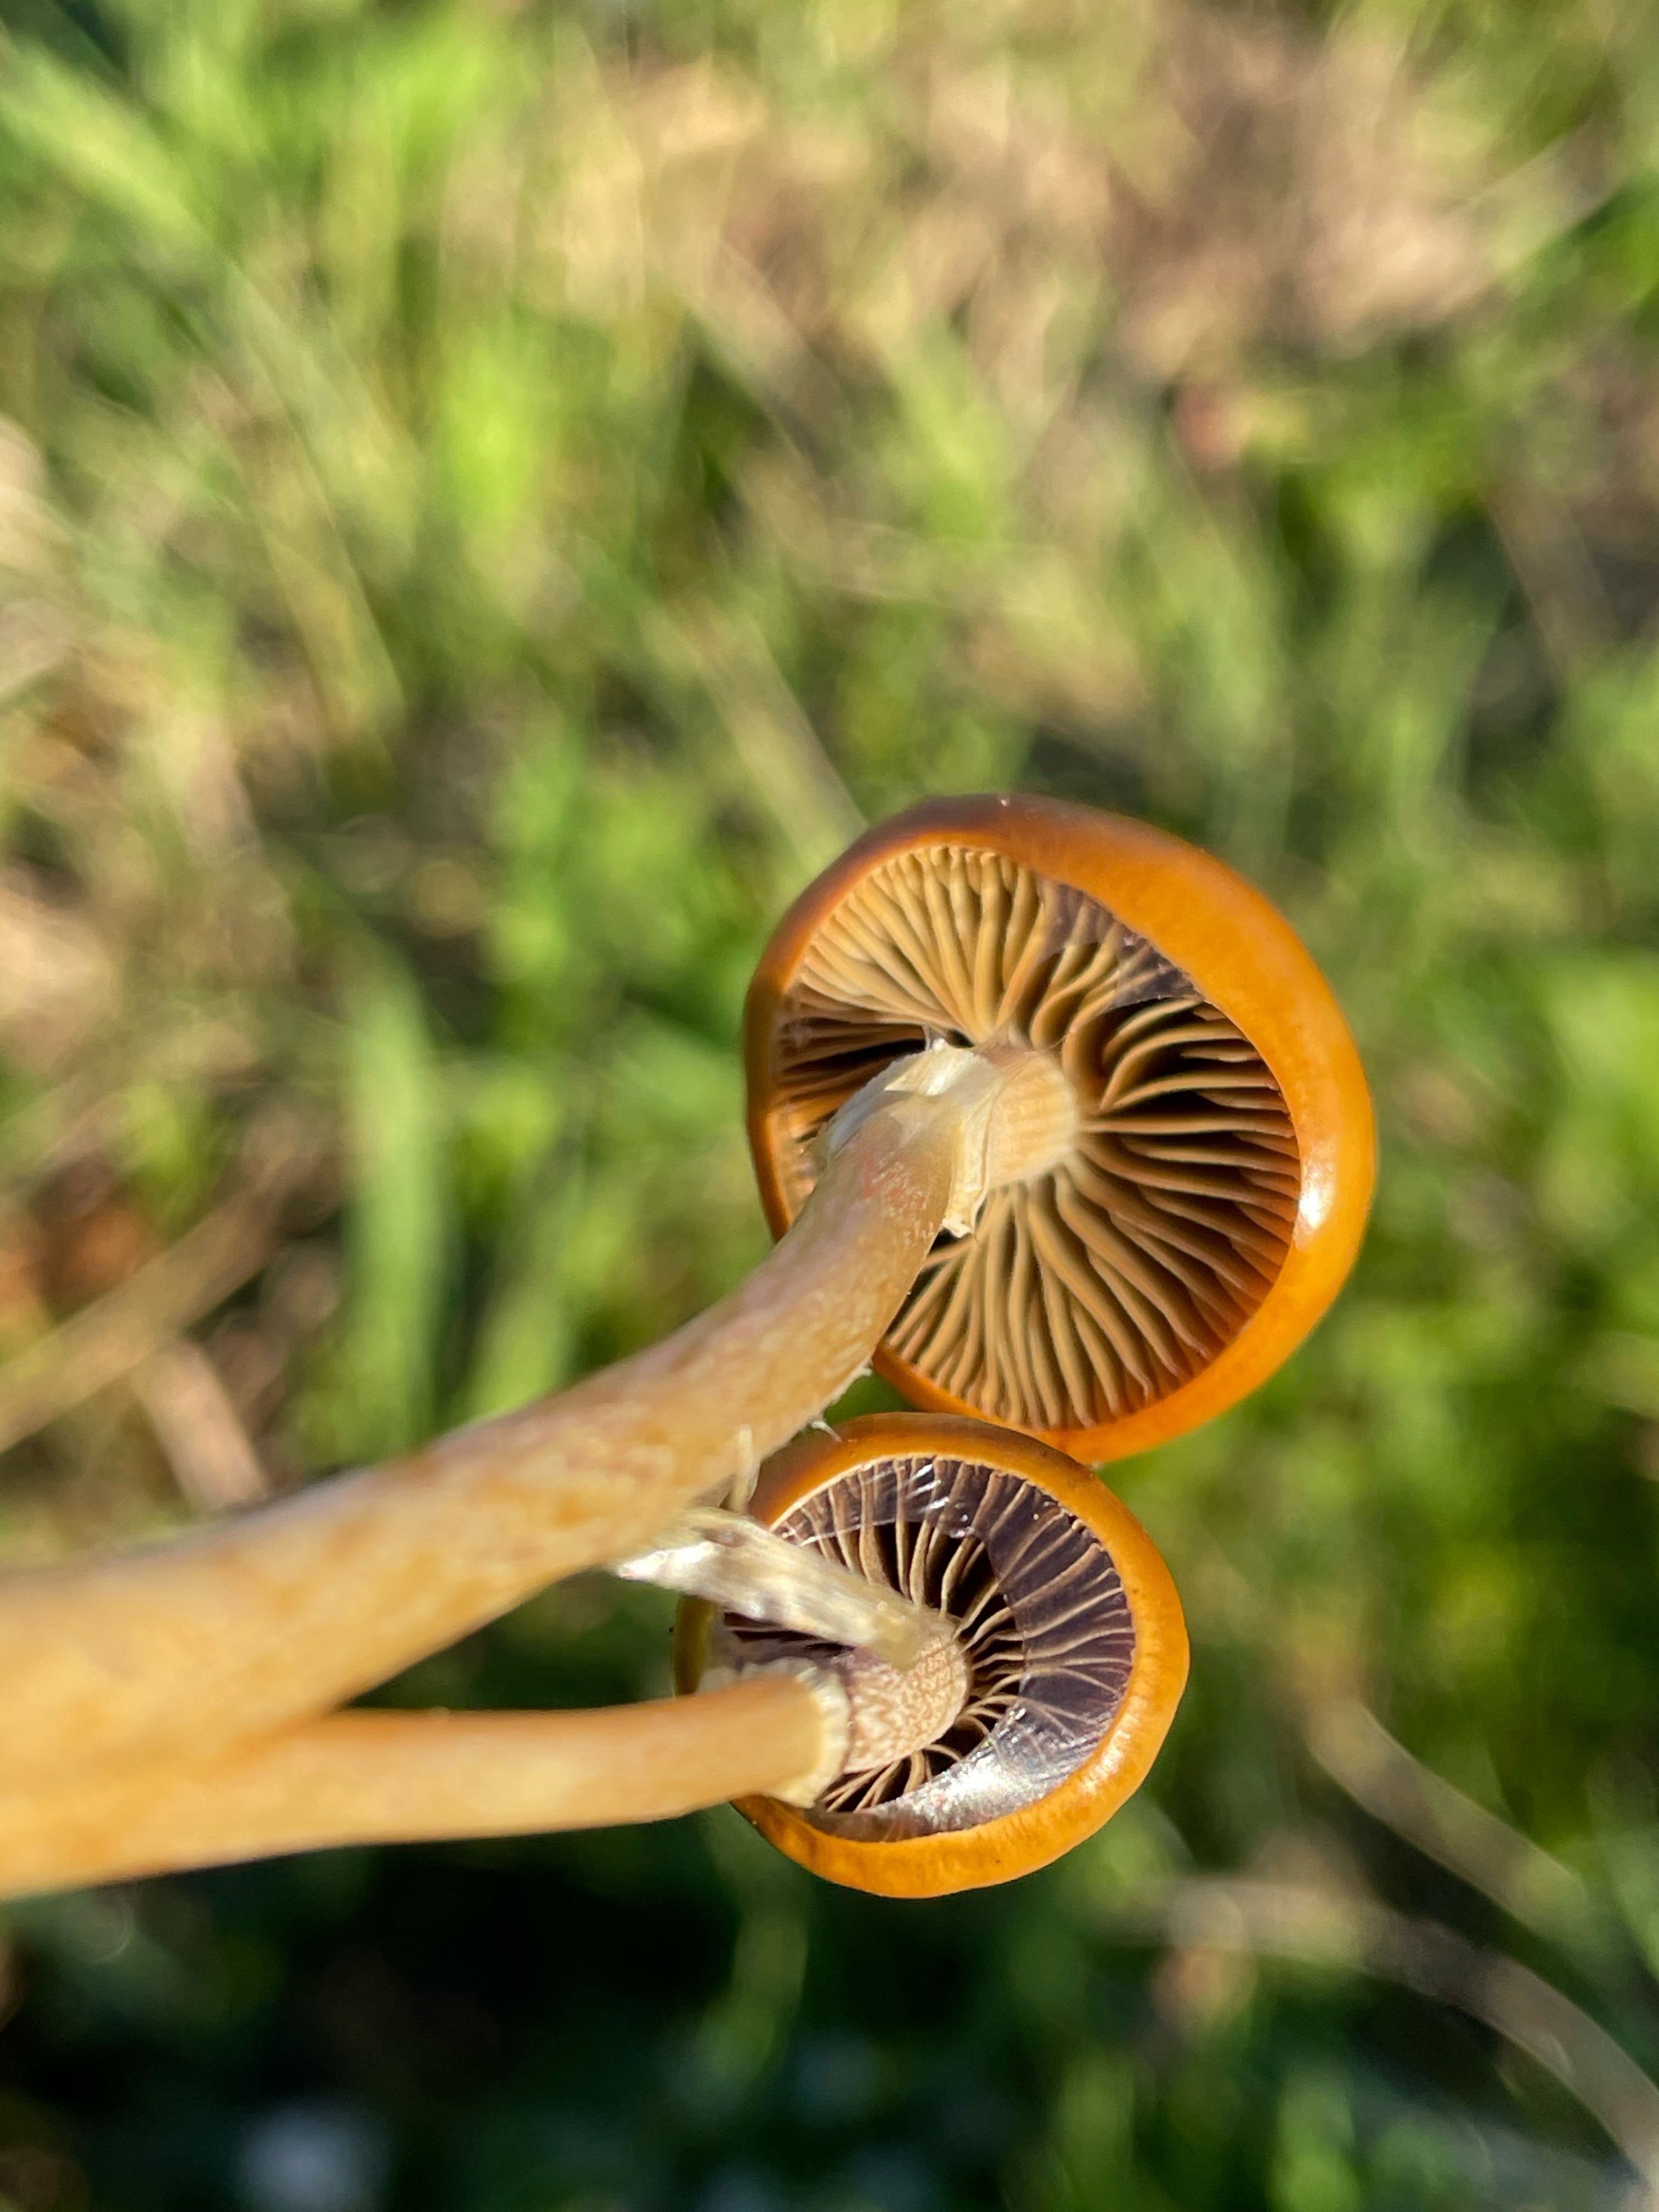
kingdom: Fungi
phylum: Basidiomycota
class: Agaricomycetes
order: Agaricales
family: Strophariaceae
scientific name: Strophariaceae
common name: bredbladfamilien
